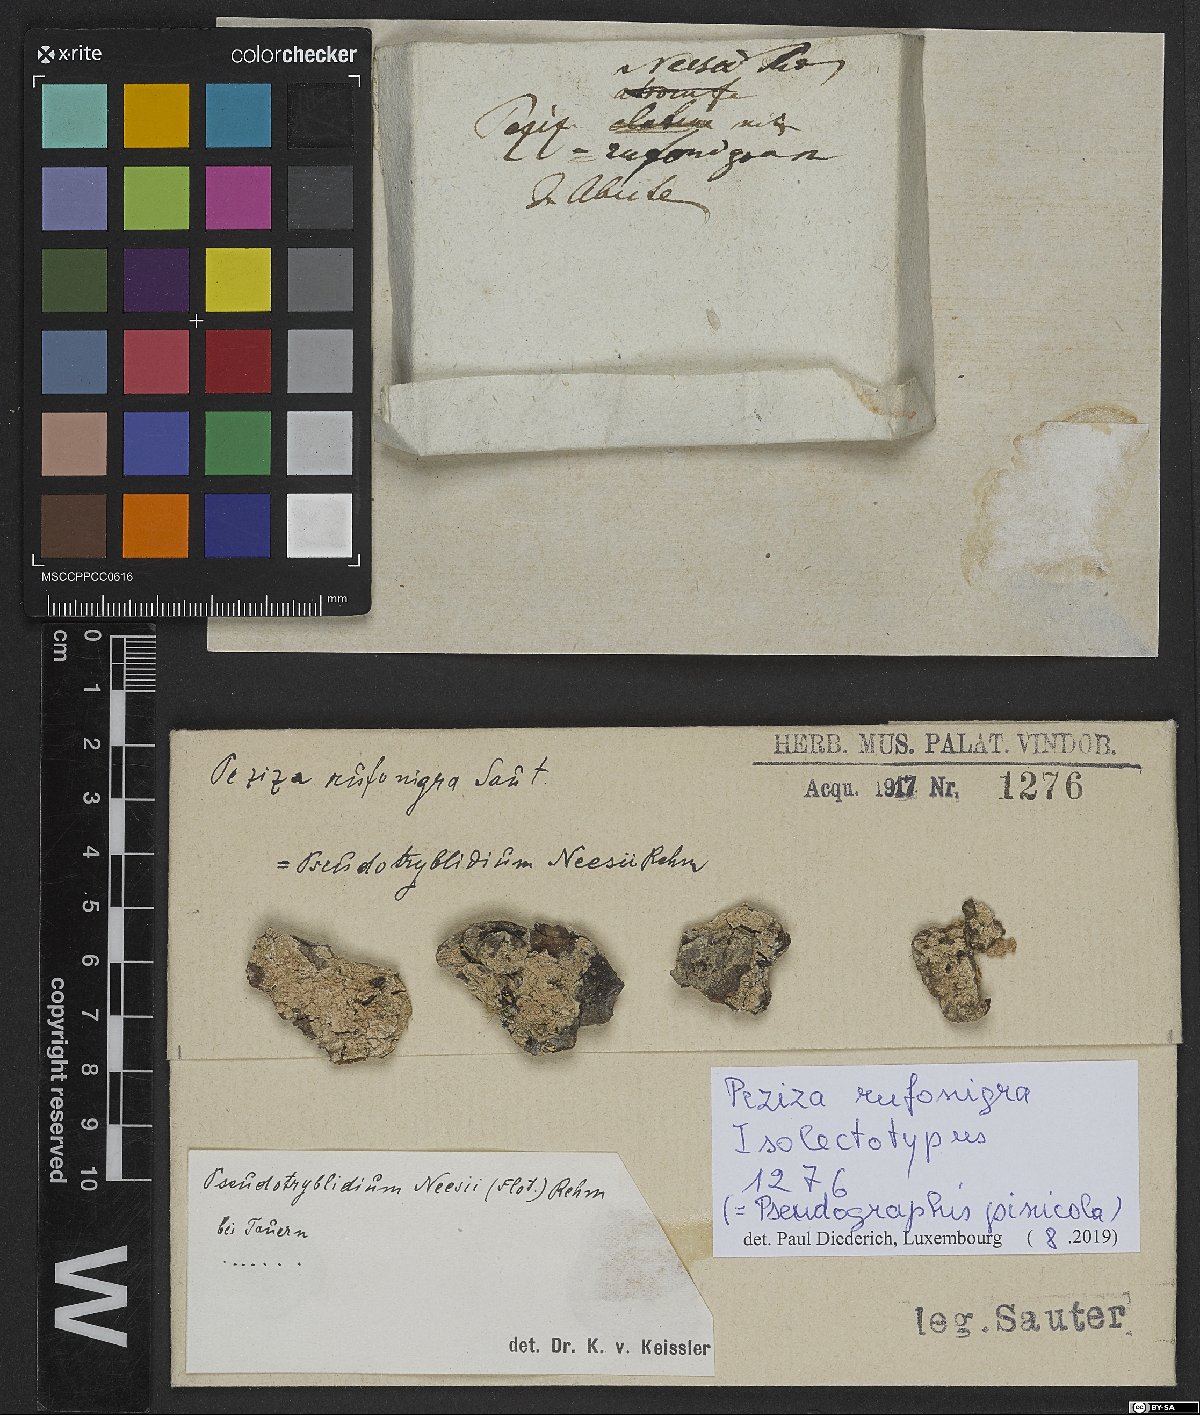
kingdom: Fungi
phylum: Ascomycota
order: Triblidiales
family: Triblidiaceae
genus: Pseudographis
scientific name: Pseudographis rufonigra
